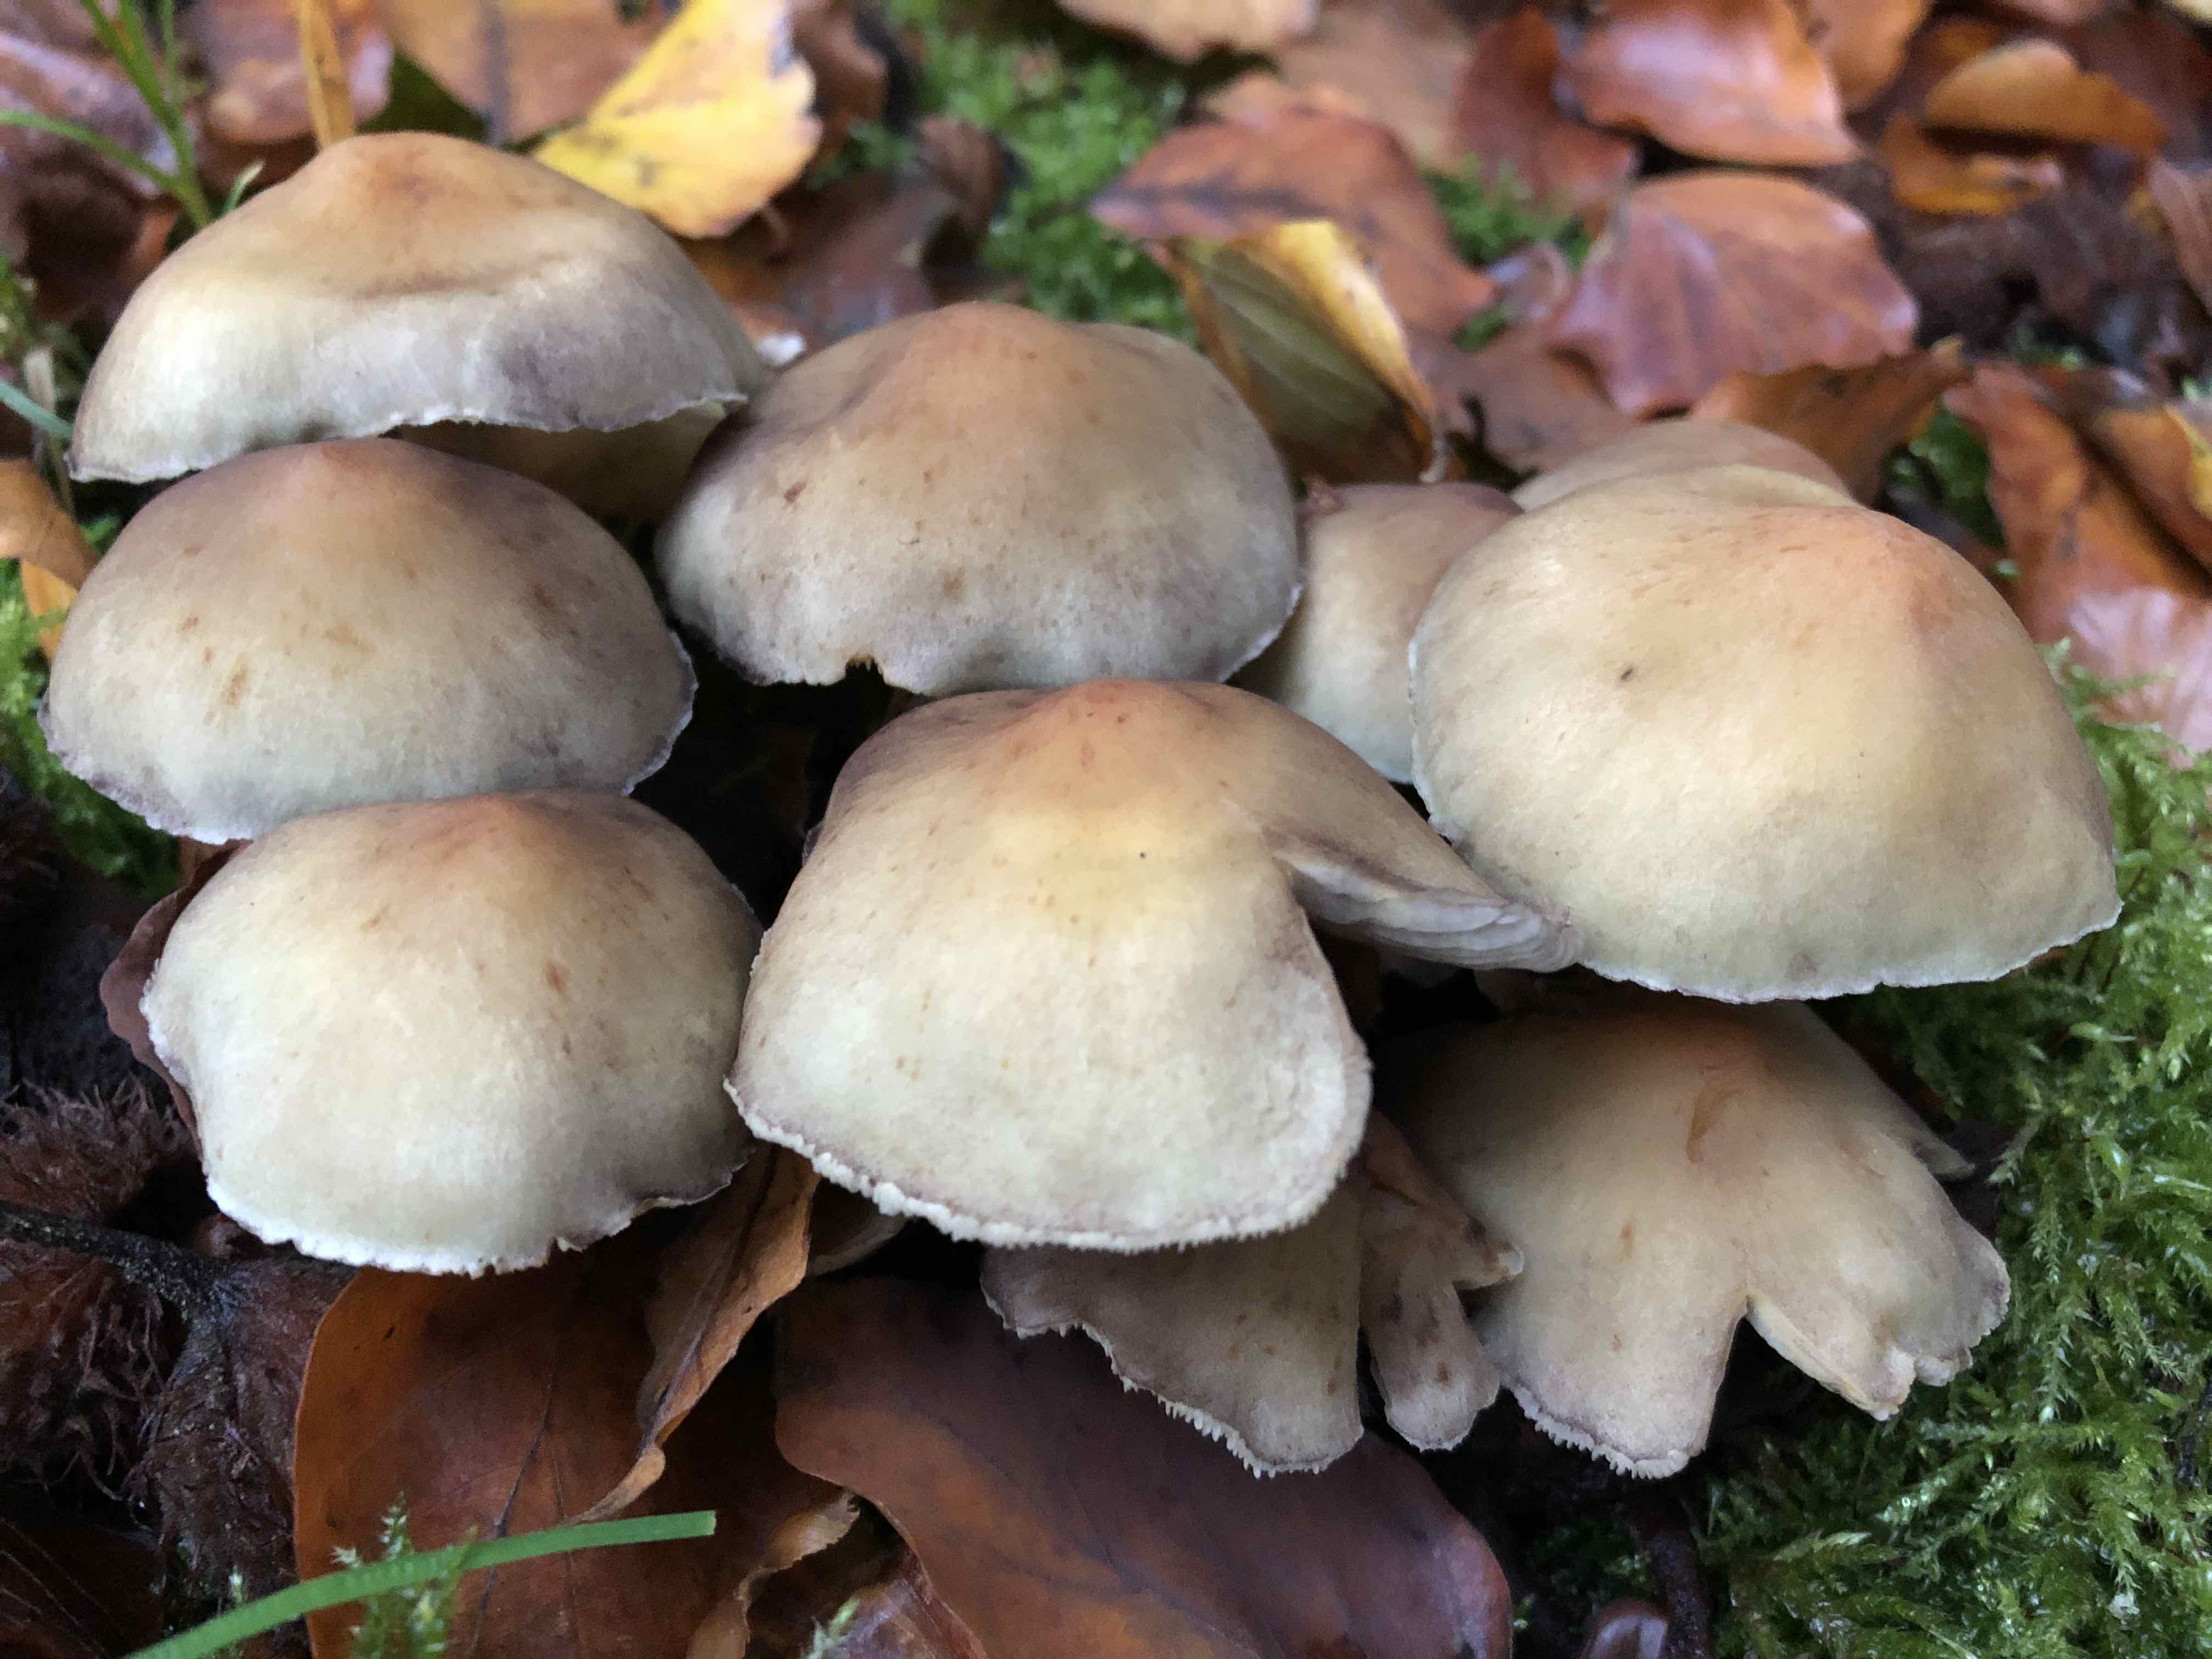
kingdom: Fungi
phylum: Basidiomycota
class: Agaricomycetes
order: Agaricales
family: Strophariaceae
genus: Hypholoma
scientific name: Hypholoma fasciculare
